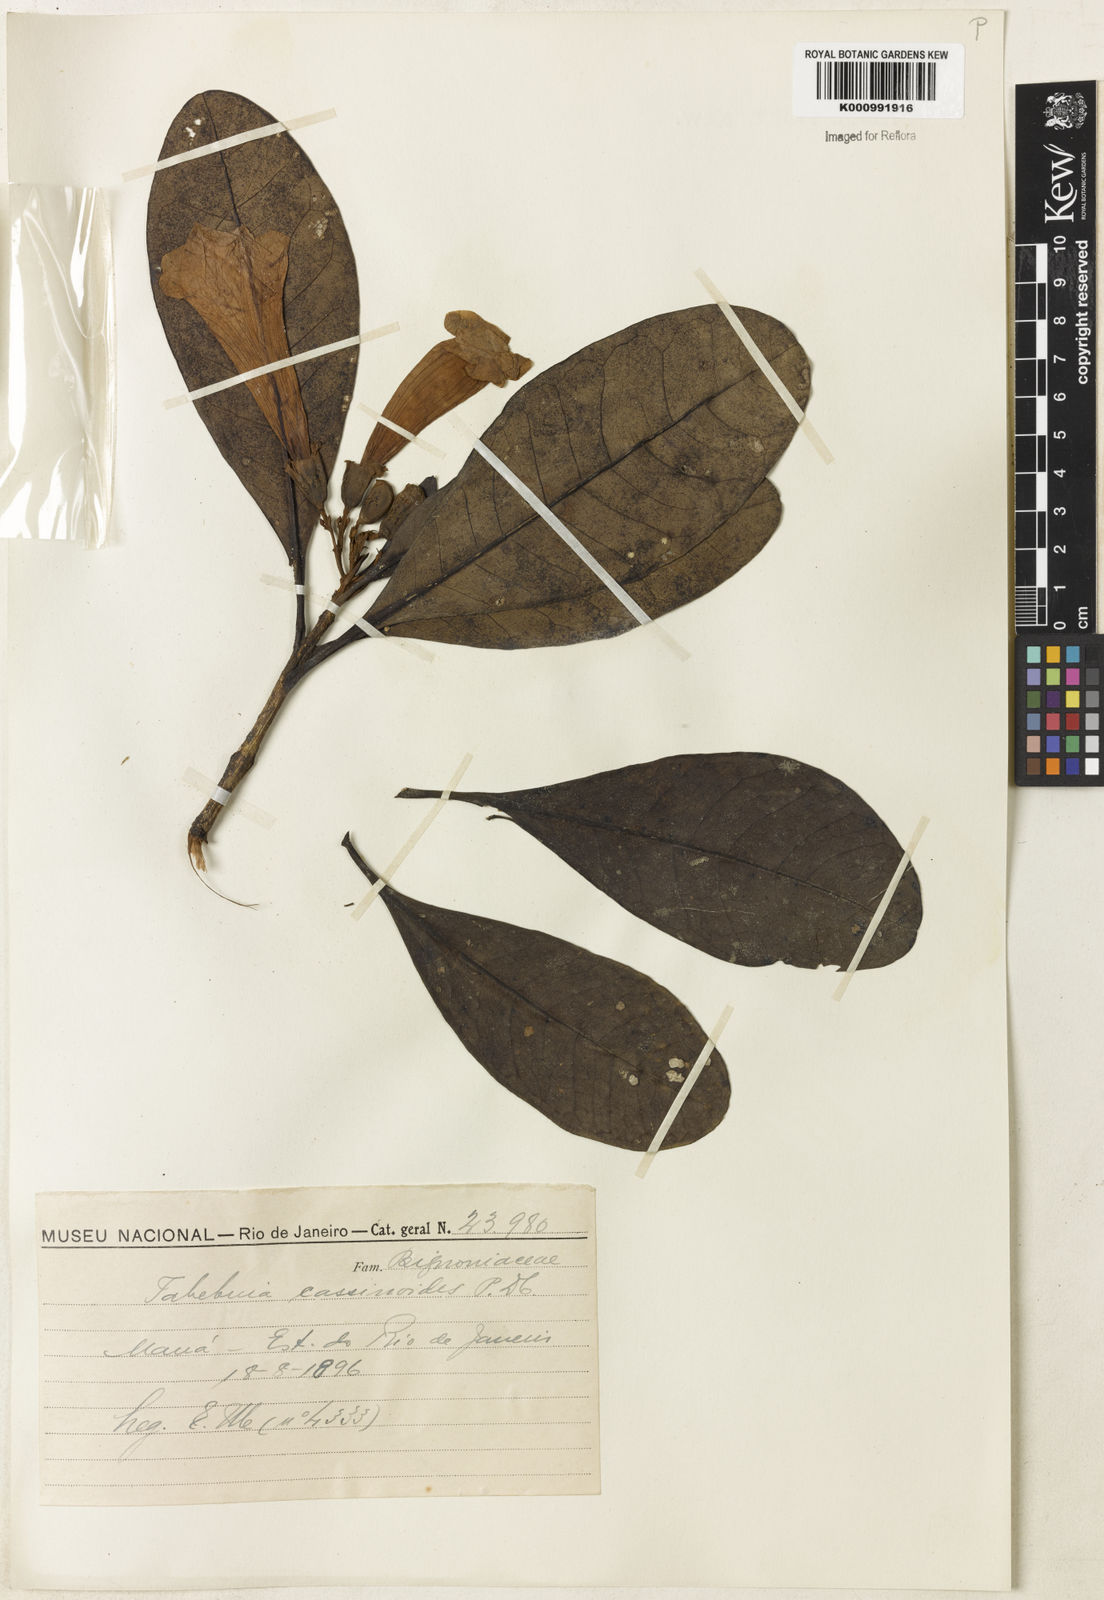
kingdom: Plantae
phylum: Tracheophyta
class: Magnoliopsida
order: Lamiales
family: Bignoniaceae
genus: Tabebuia
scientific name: Tabebuia cassinoides
